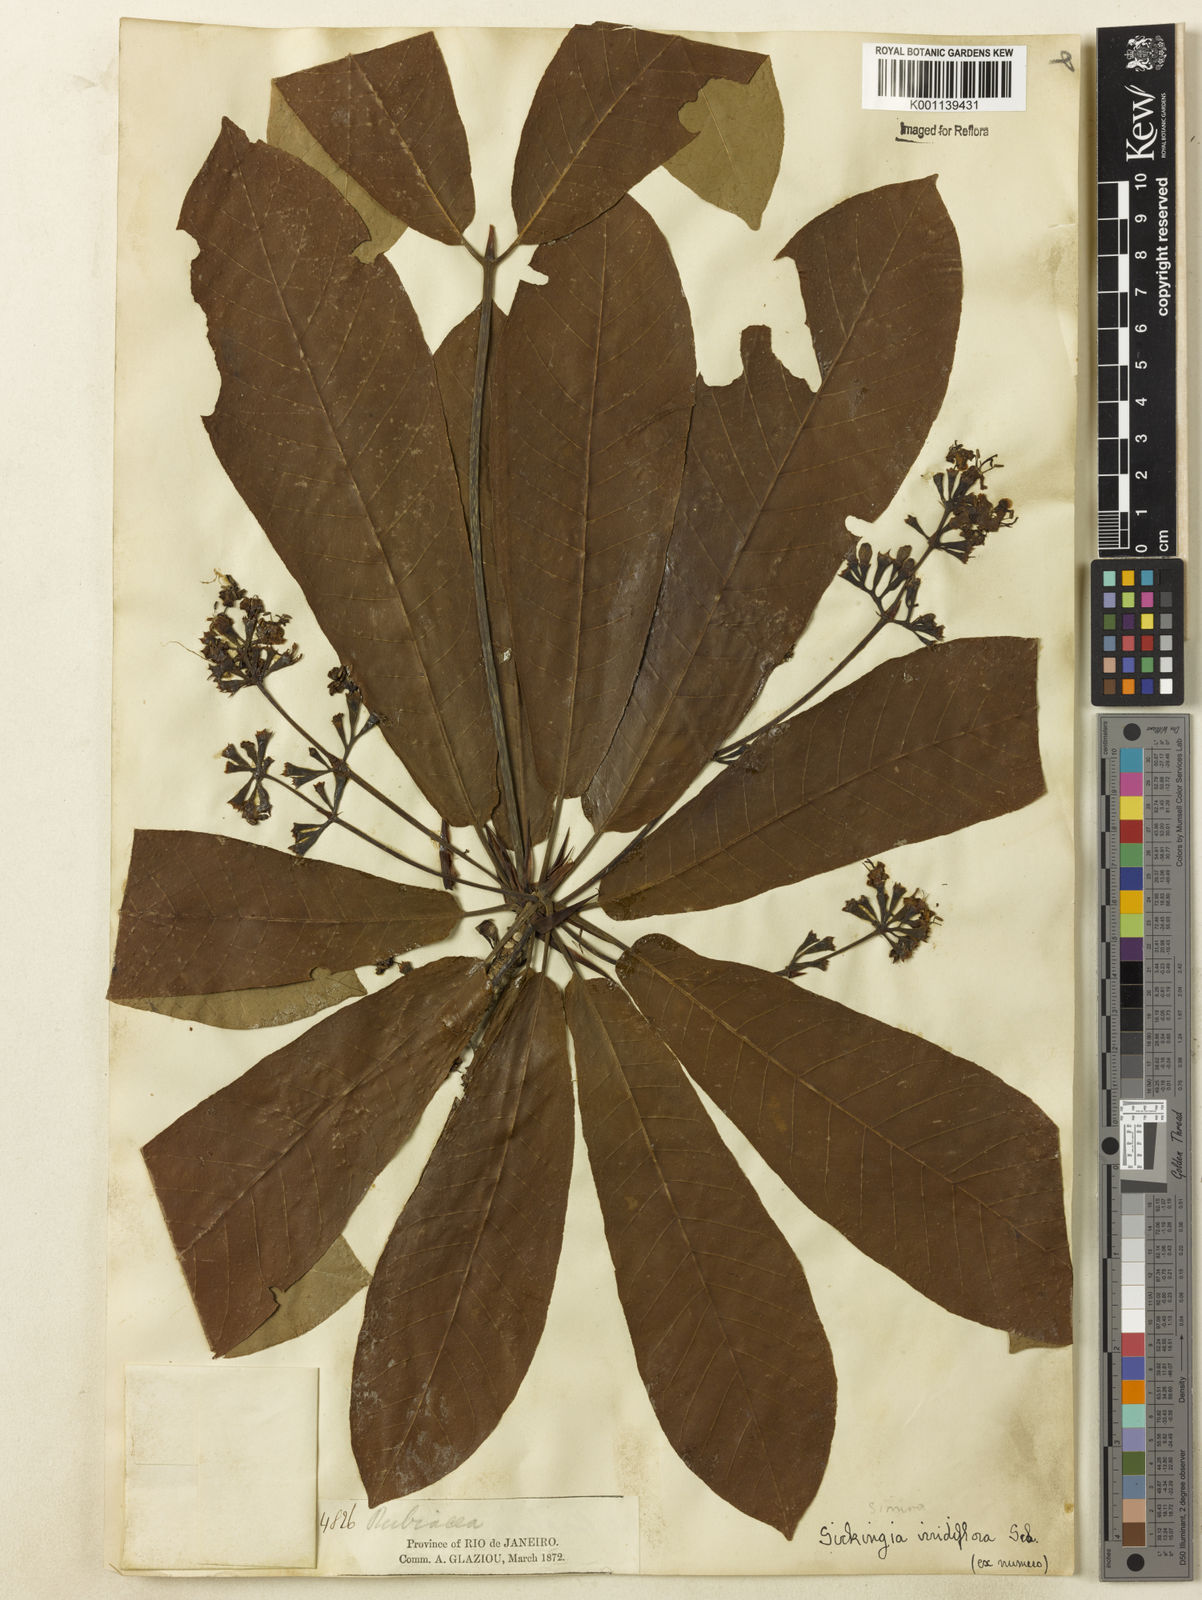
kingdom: Plantae
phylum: Tracheophyta
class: Magnoliopsida
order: Gentianales
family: Rubiaceae
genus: Simira
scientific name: Simira
